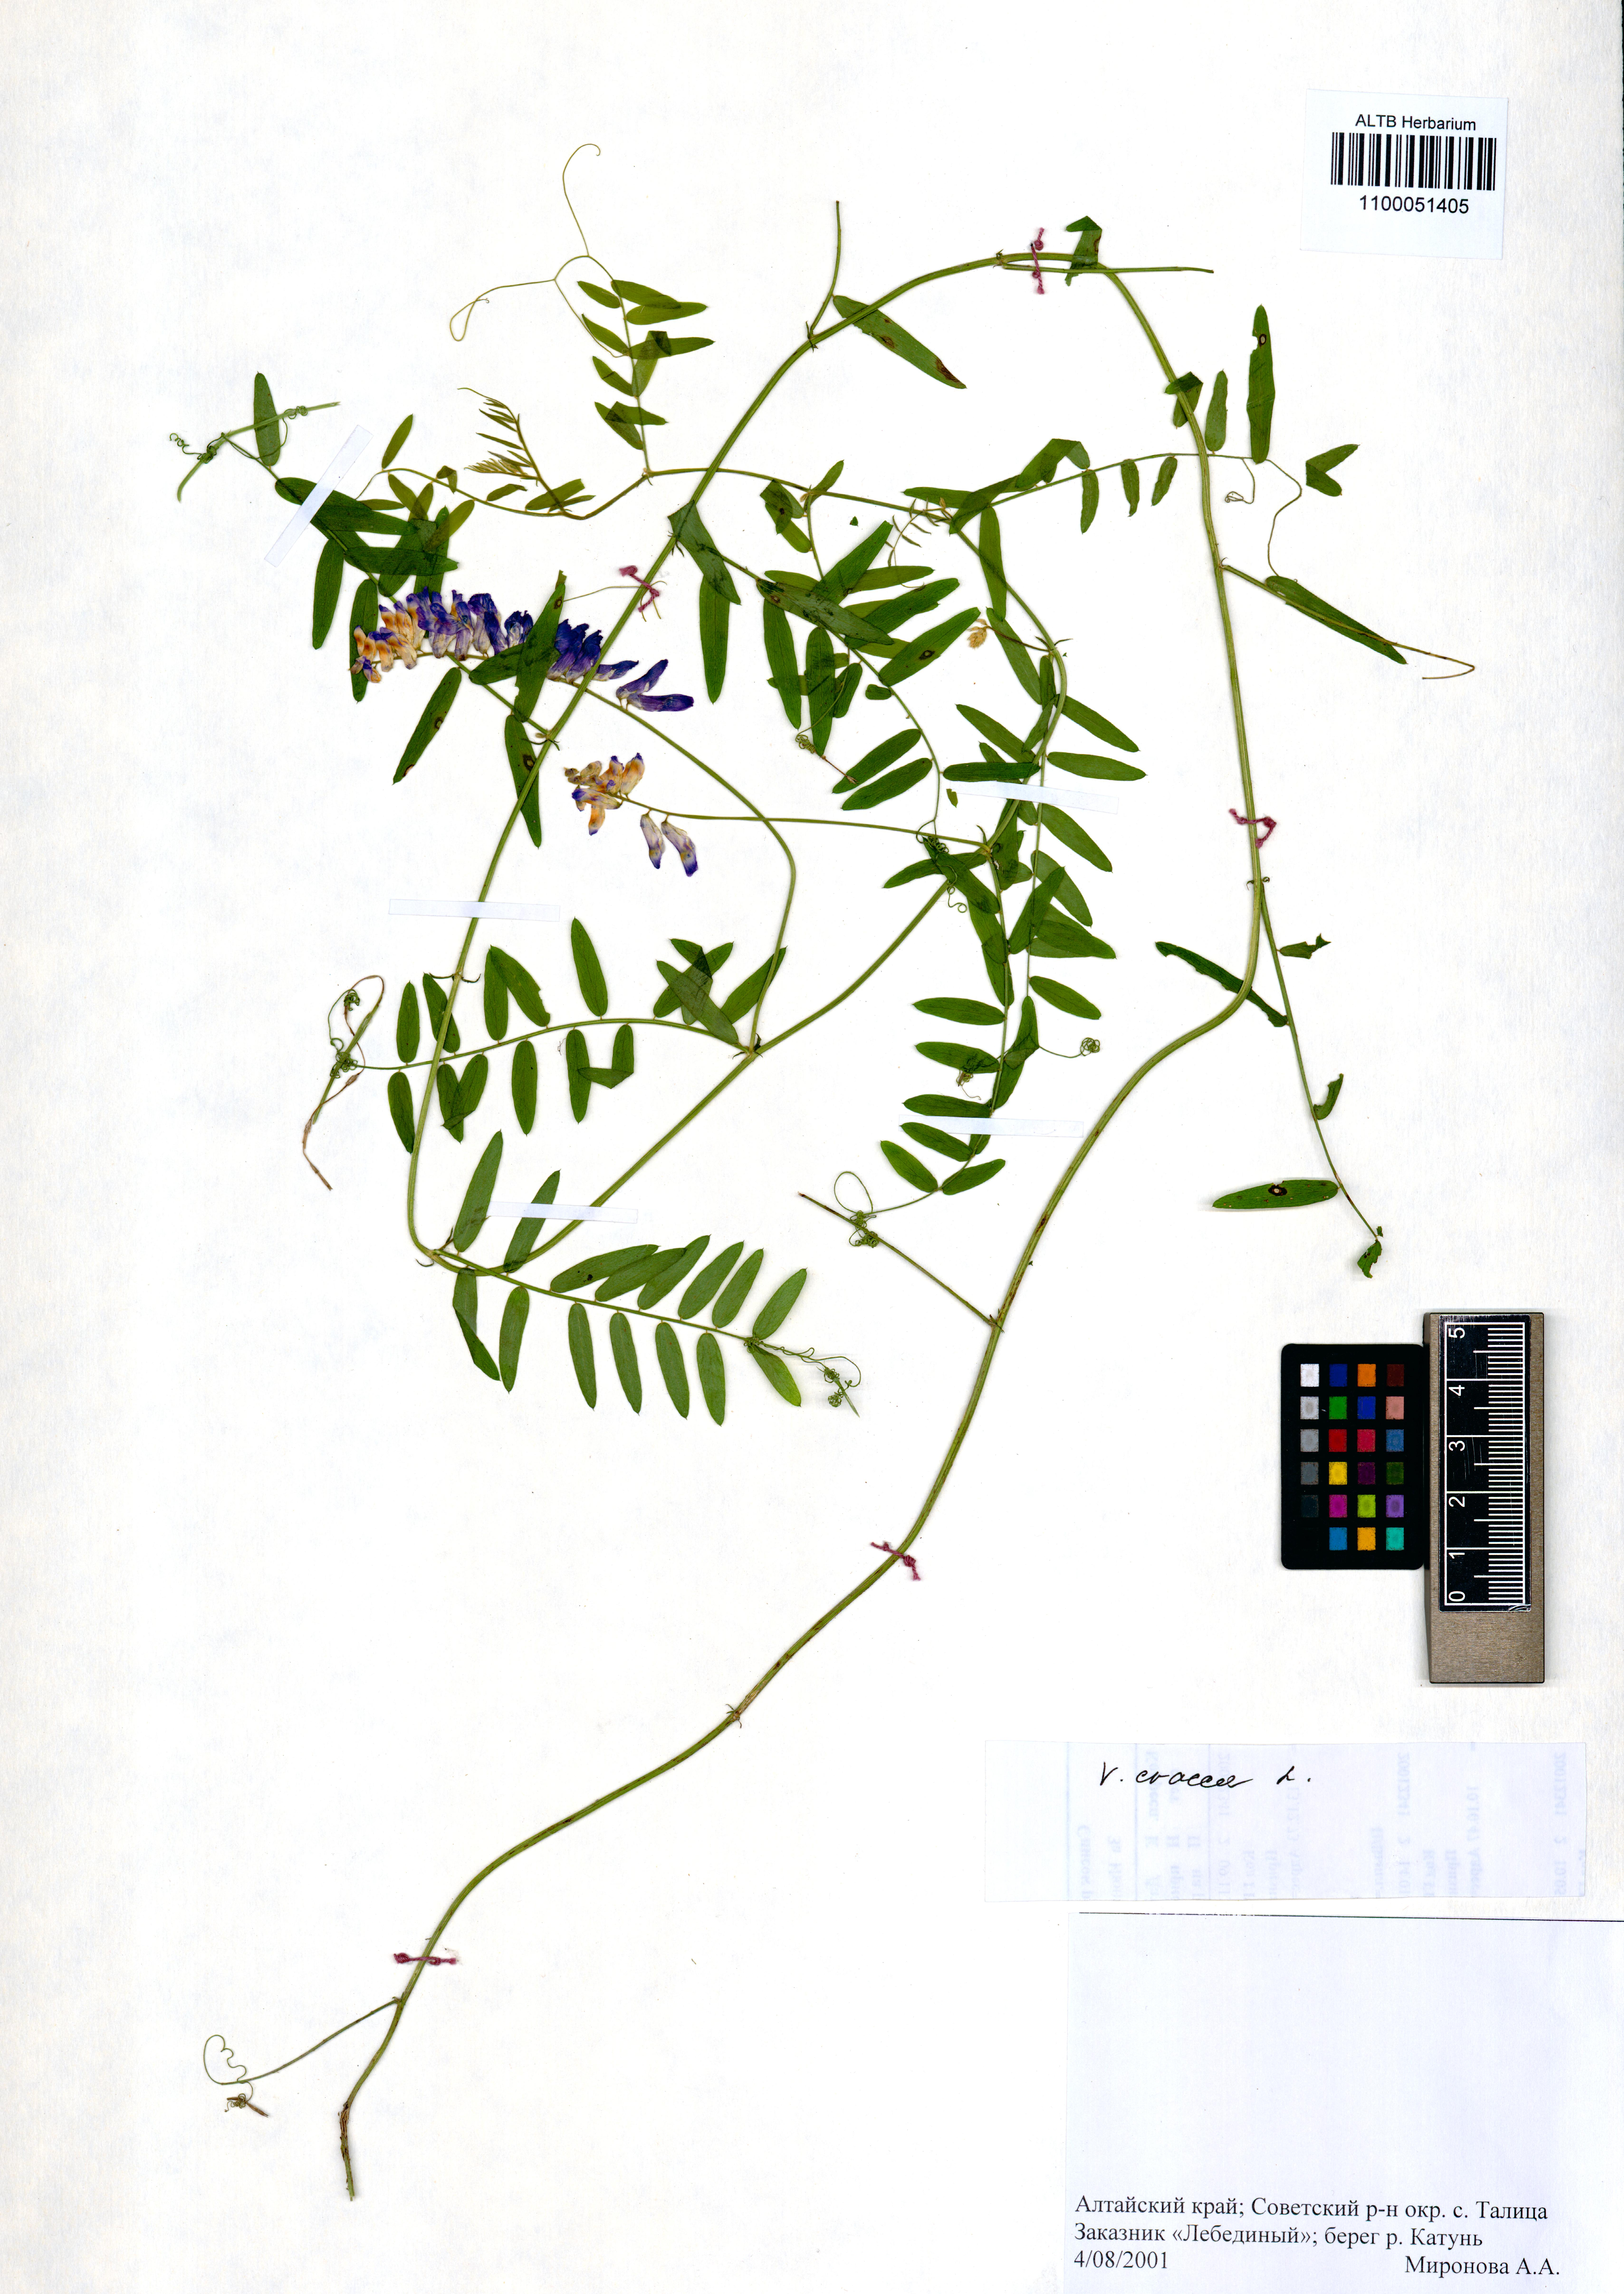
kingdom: Plantae
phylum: Tracheophyta
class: Magnoliopsida
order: Fabales
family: Fabaceae
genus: Vicia
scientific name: Vicia cracca
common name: Bird vetch
